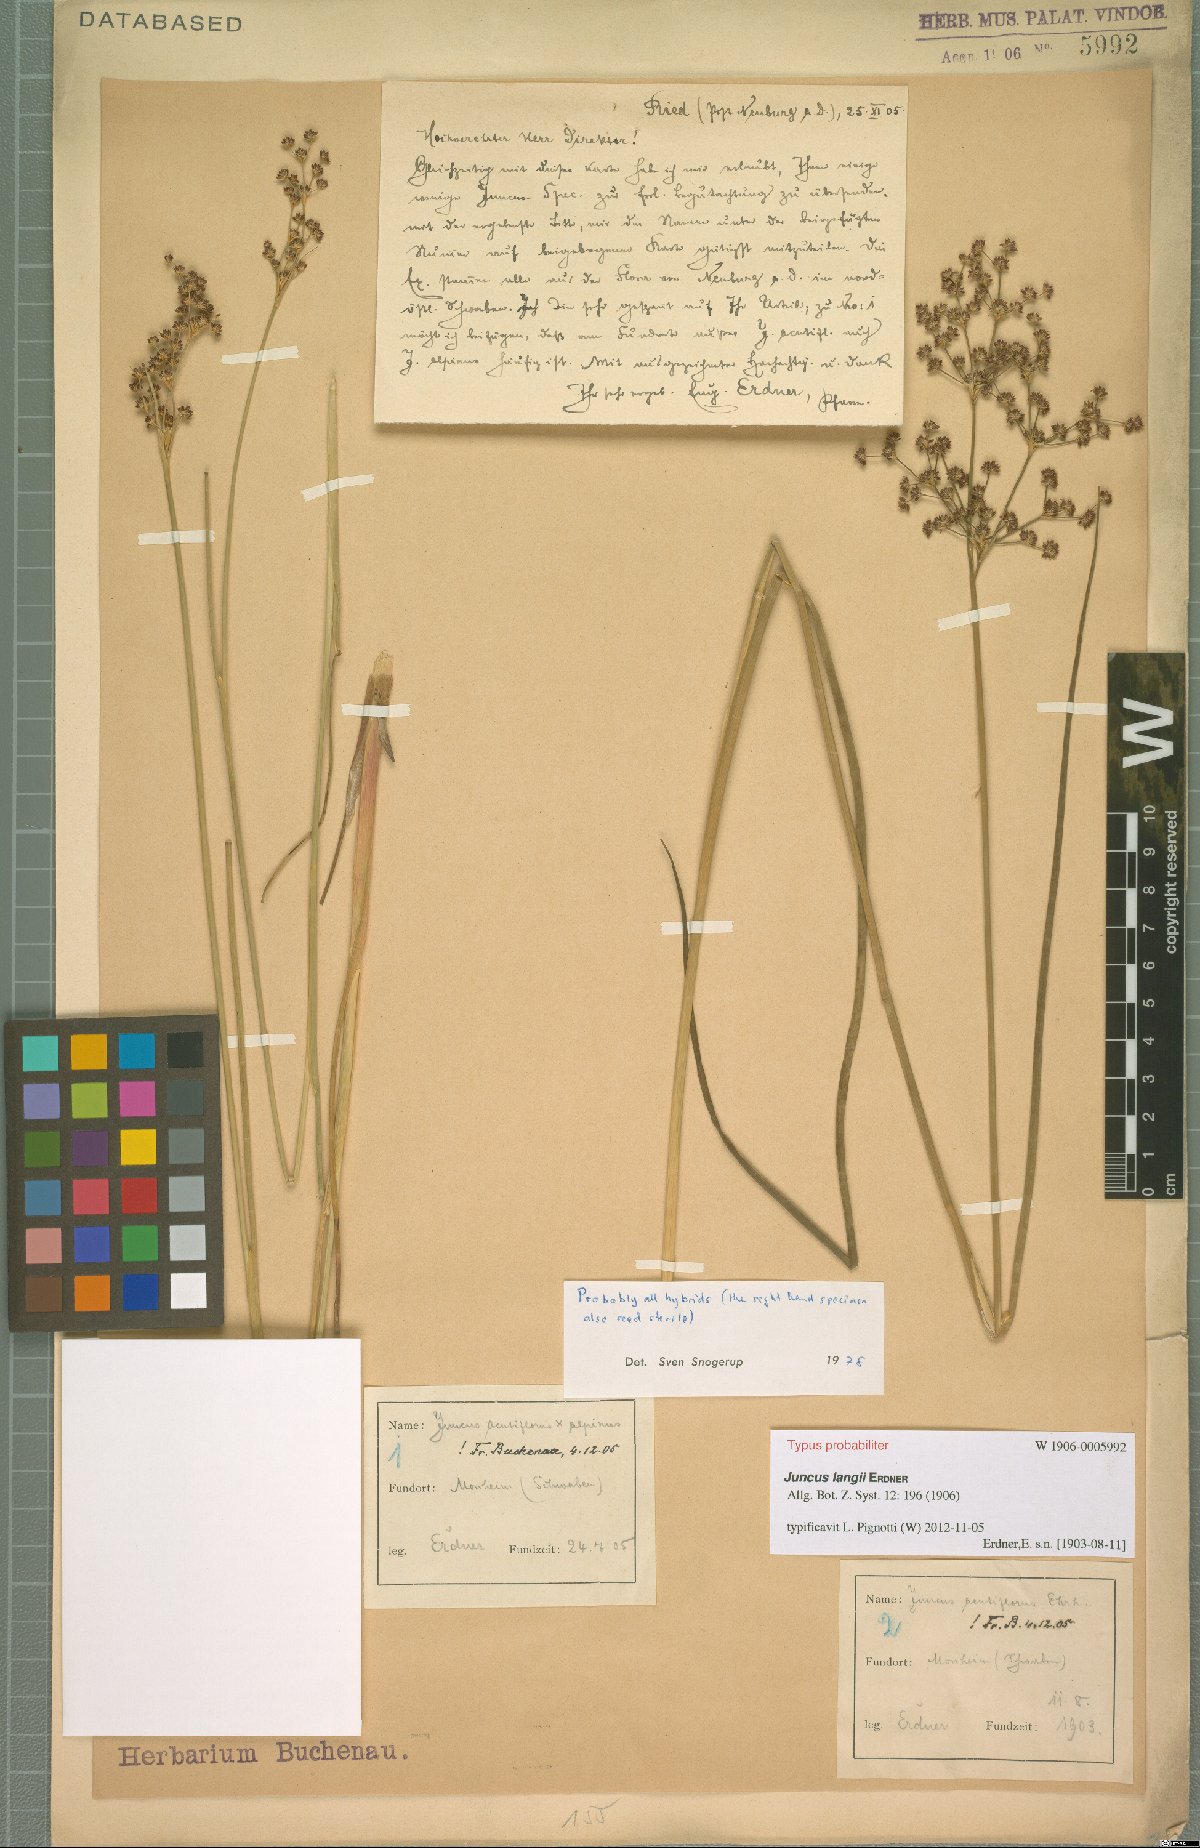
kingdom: Plantae
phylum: Tracheophyta
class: Liliopsida
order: Poales
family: Juncaceae
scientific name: Juncaceae
